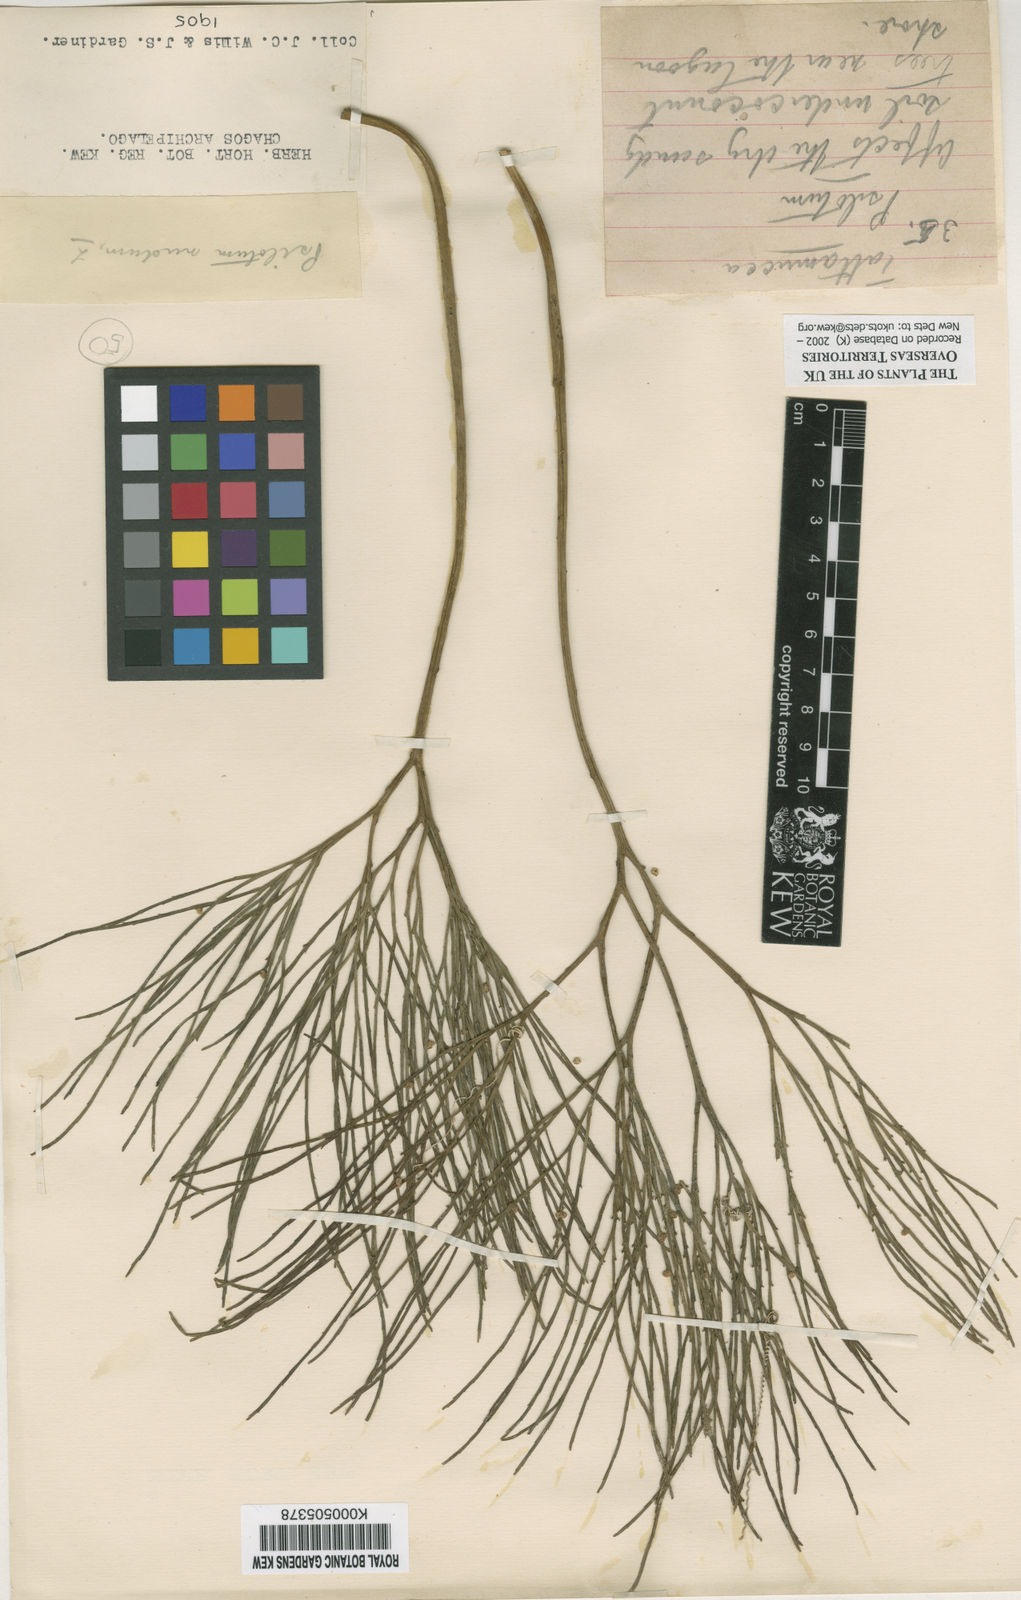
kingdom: Plantae
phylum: Tracheophyta
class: Polypodiopsida
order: Psilotales
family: Psilotaceae
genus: Psilotum
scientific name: Psilotum
